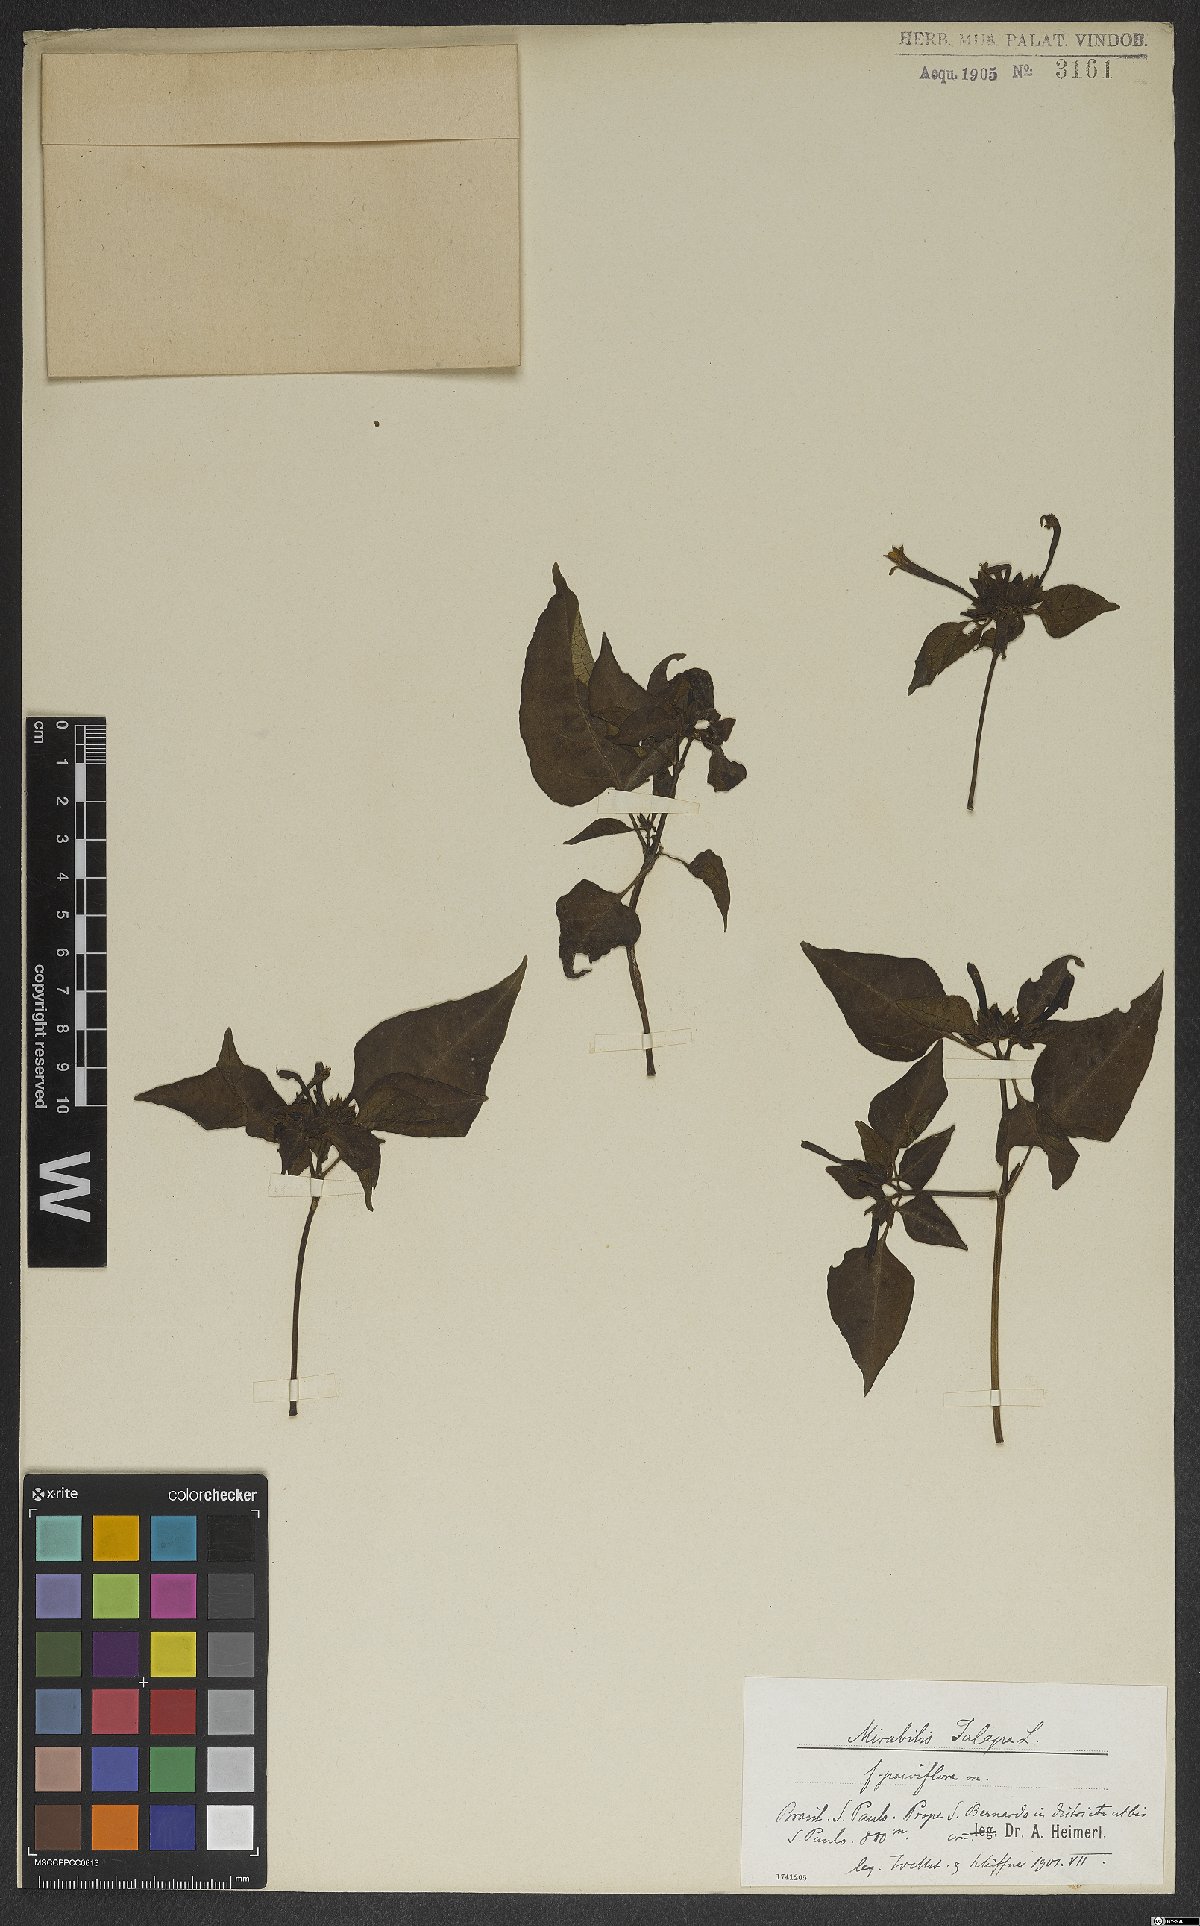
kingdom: Plantae
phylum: Tracheophyta
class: Magnoliopsida
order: Caryophyllales
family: Nyctaginaceae
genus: Mirabilis
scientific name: Mirabilis jalapa
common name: Marvel-of-peru
